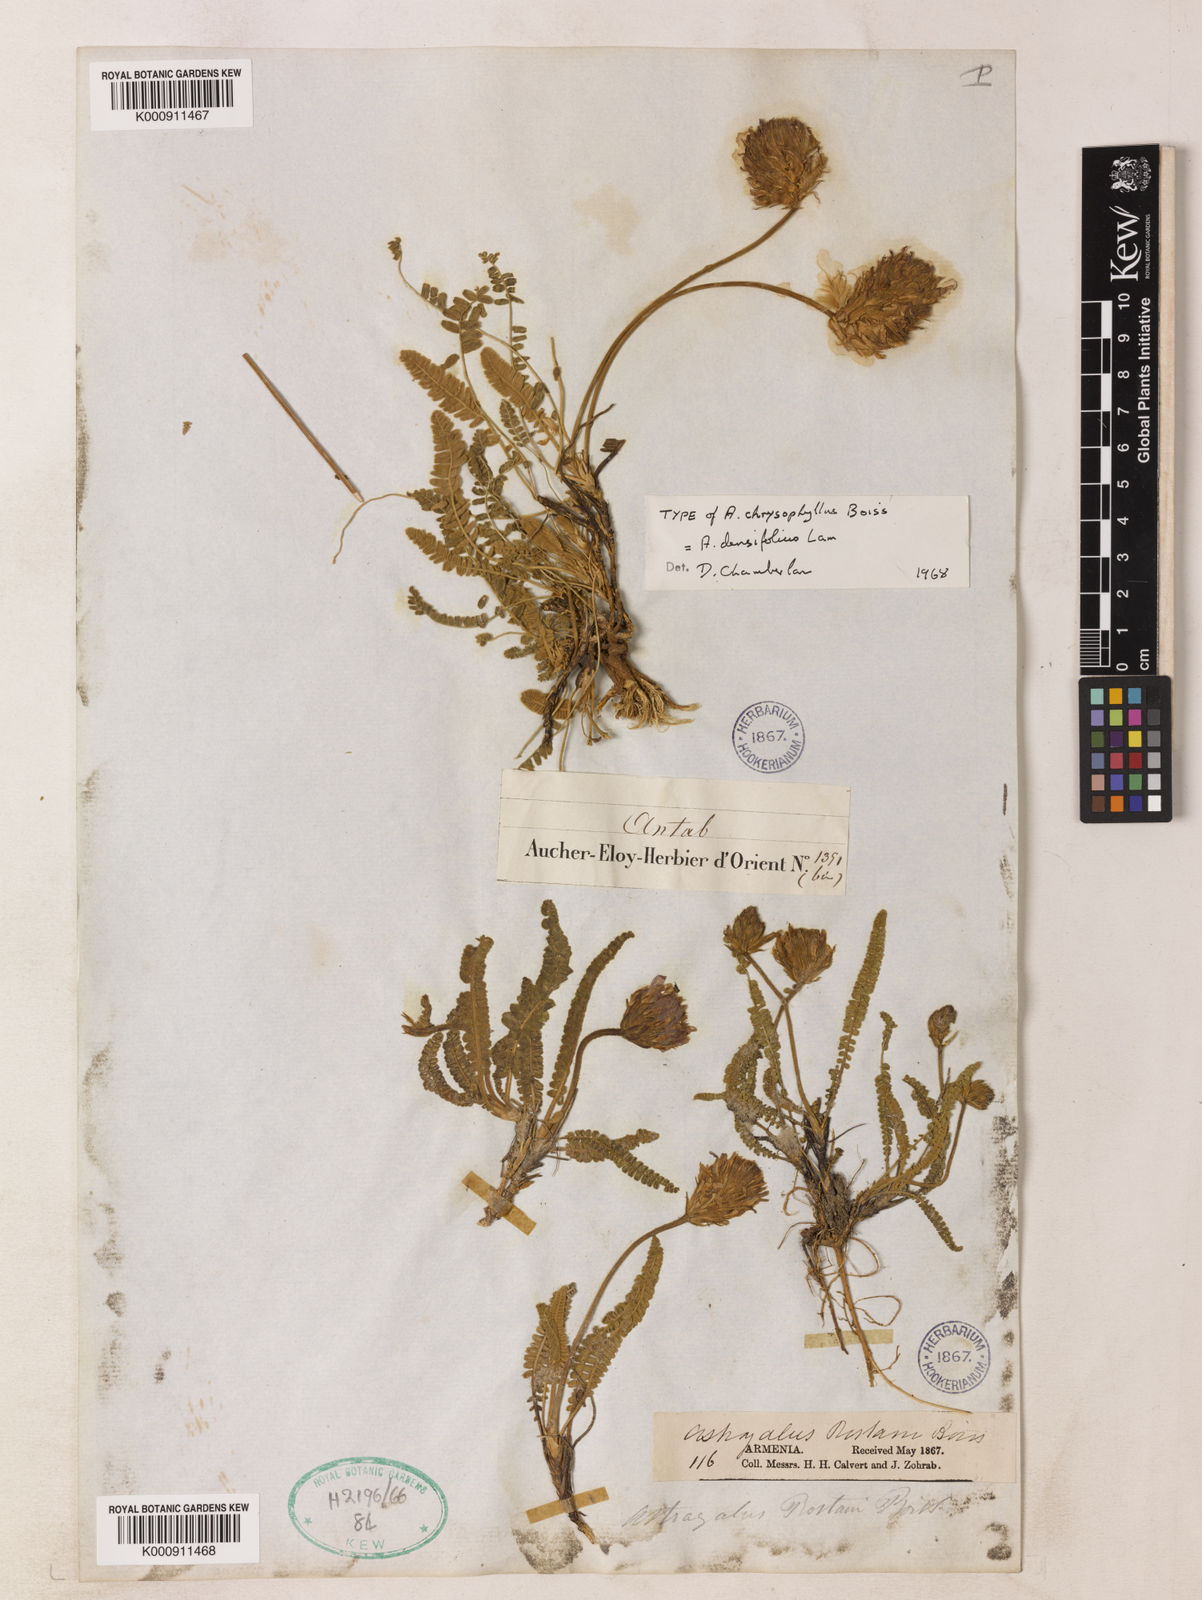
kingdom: Plantae
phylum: Tracheophyta
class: Magnoliopsida
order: Fabales
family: Fabaceae
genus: Astragalus
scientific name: Astragalus densifolius
